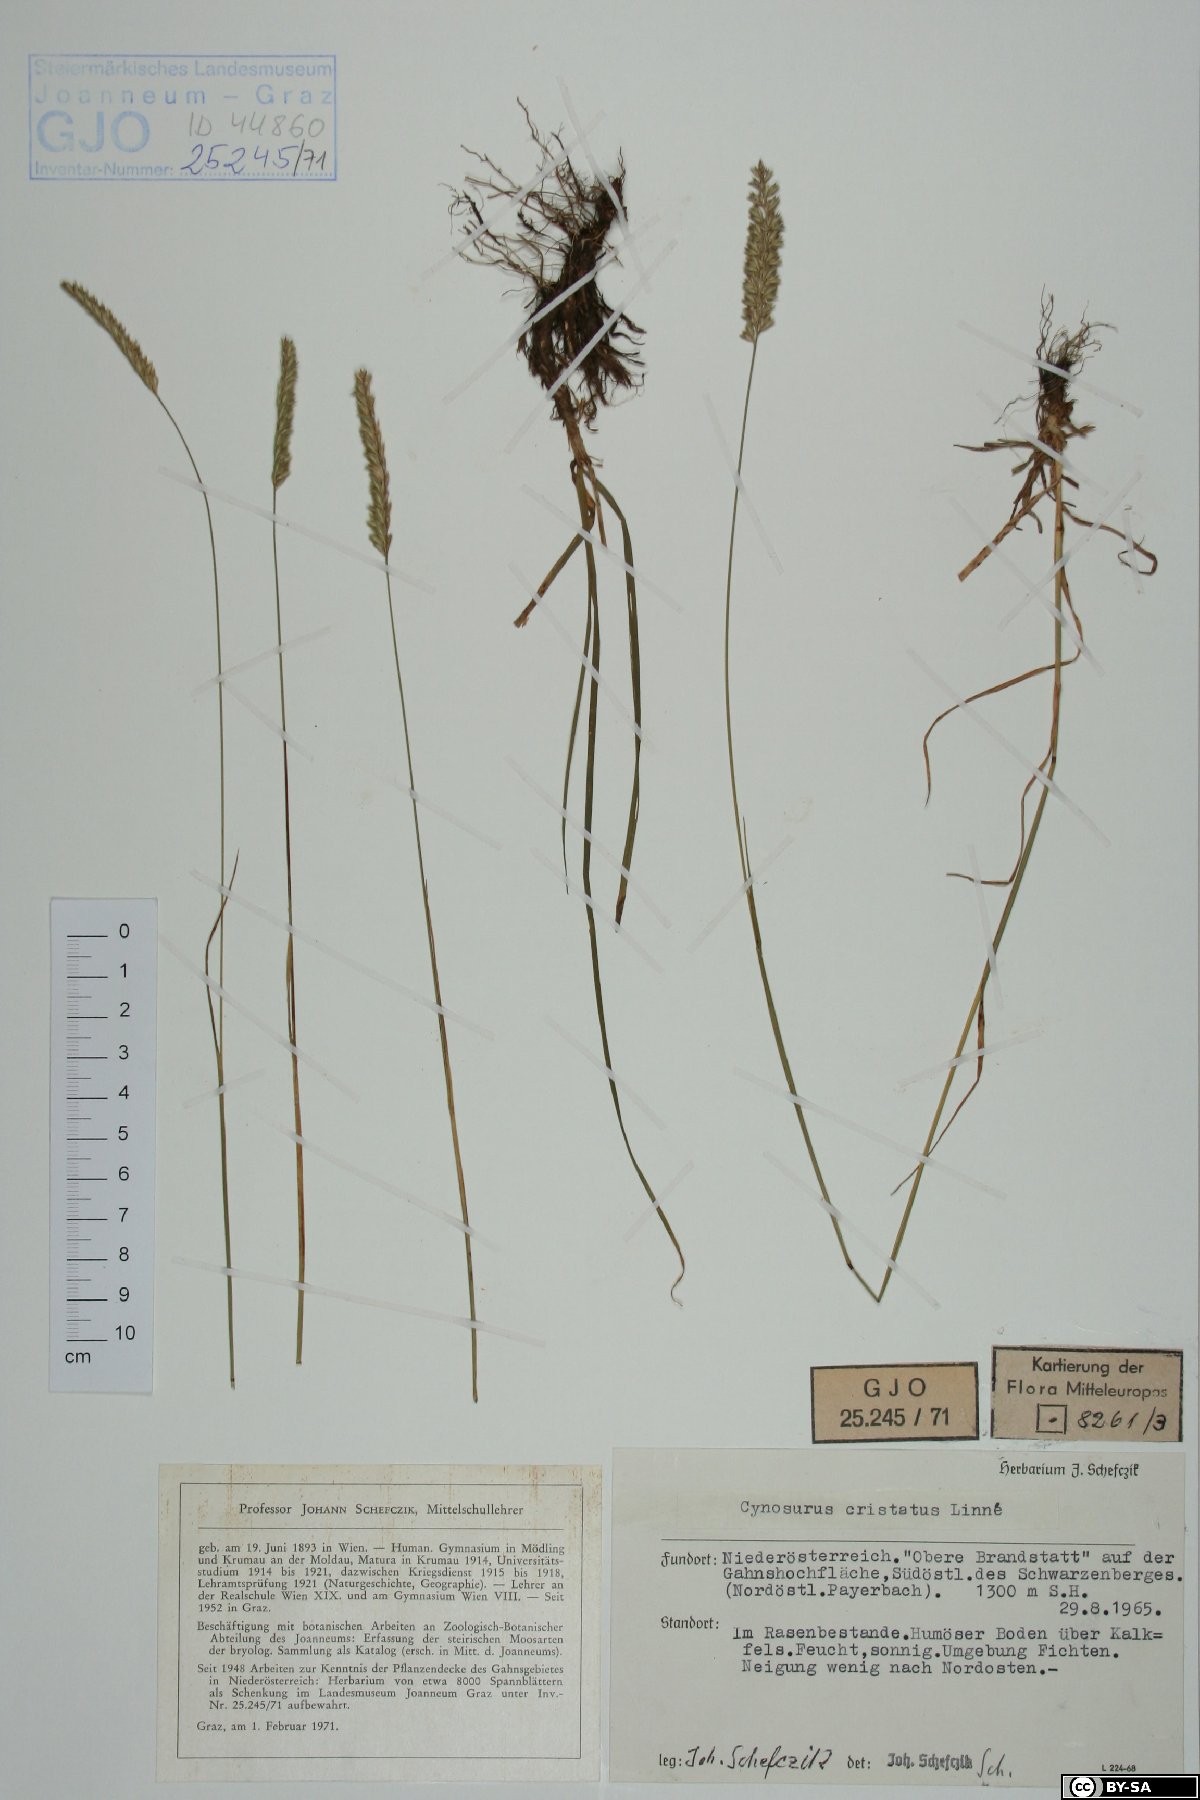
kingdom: Plantae
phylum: Tracheophyta
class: Liliopsida
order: Poales
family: Poaceae
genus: Cynosurus
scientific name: Cynosurus cristatus
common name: Crested dog's-tail
